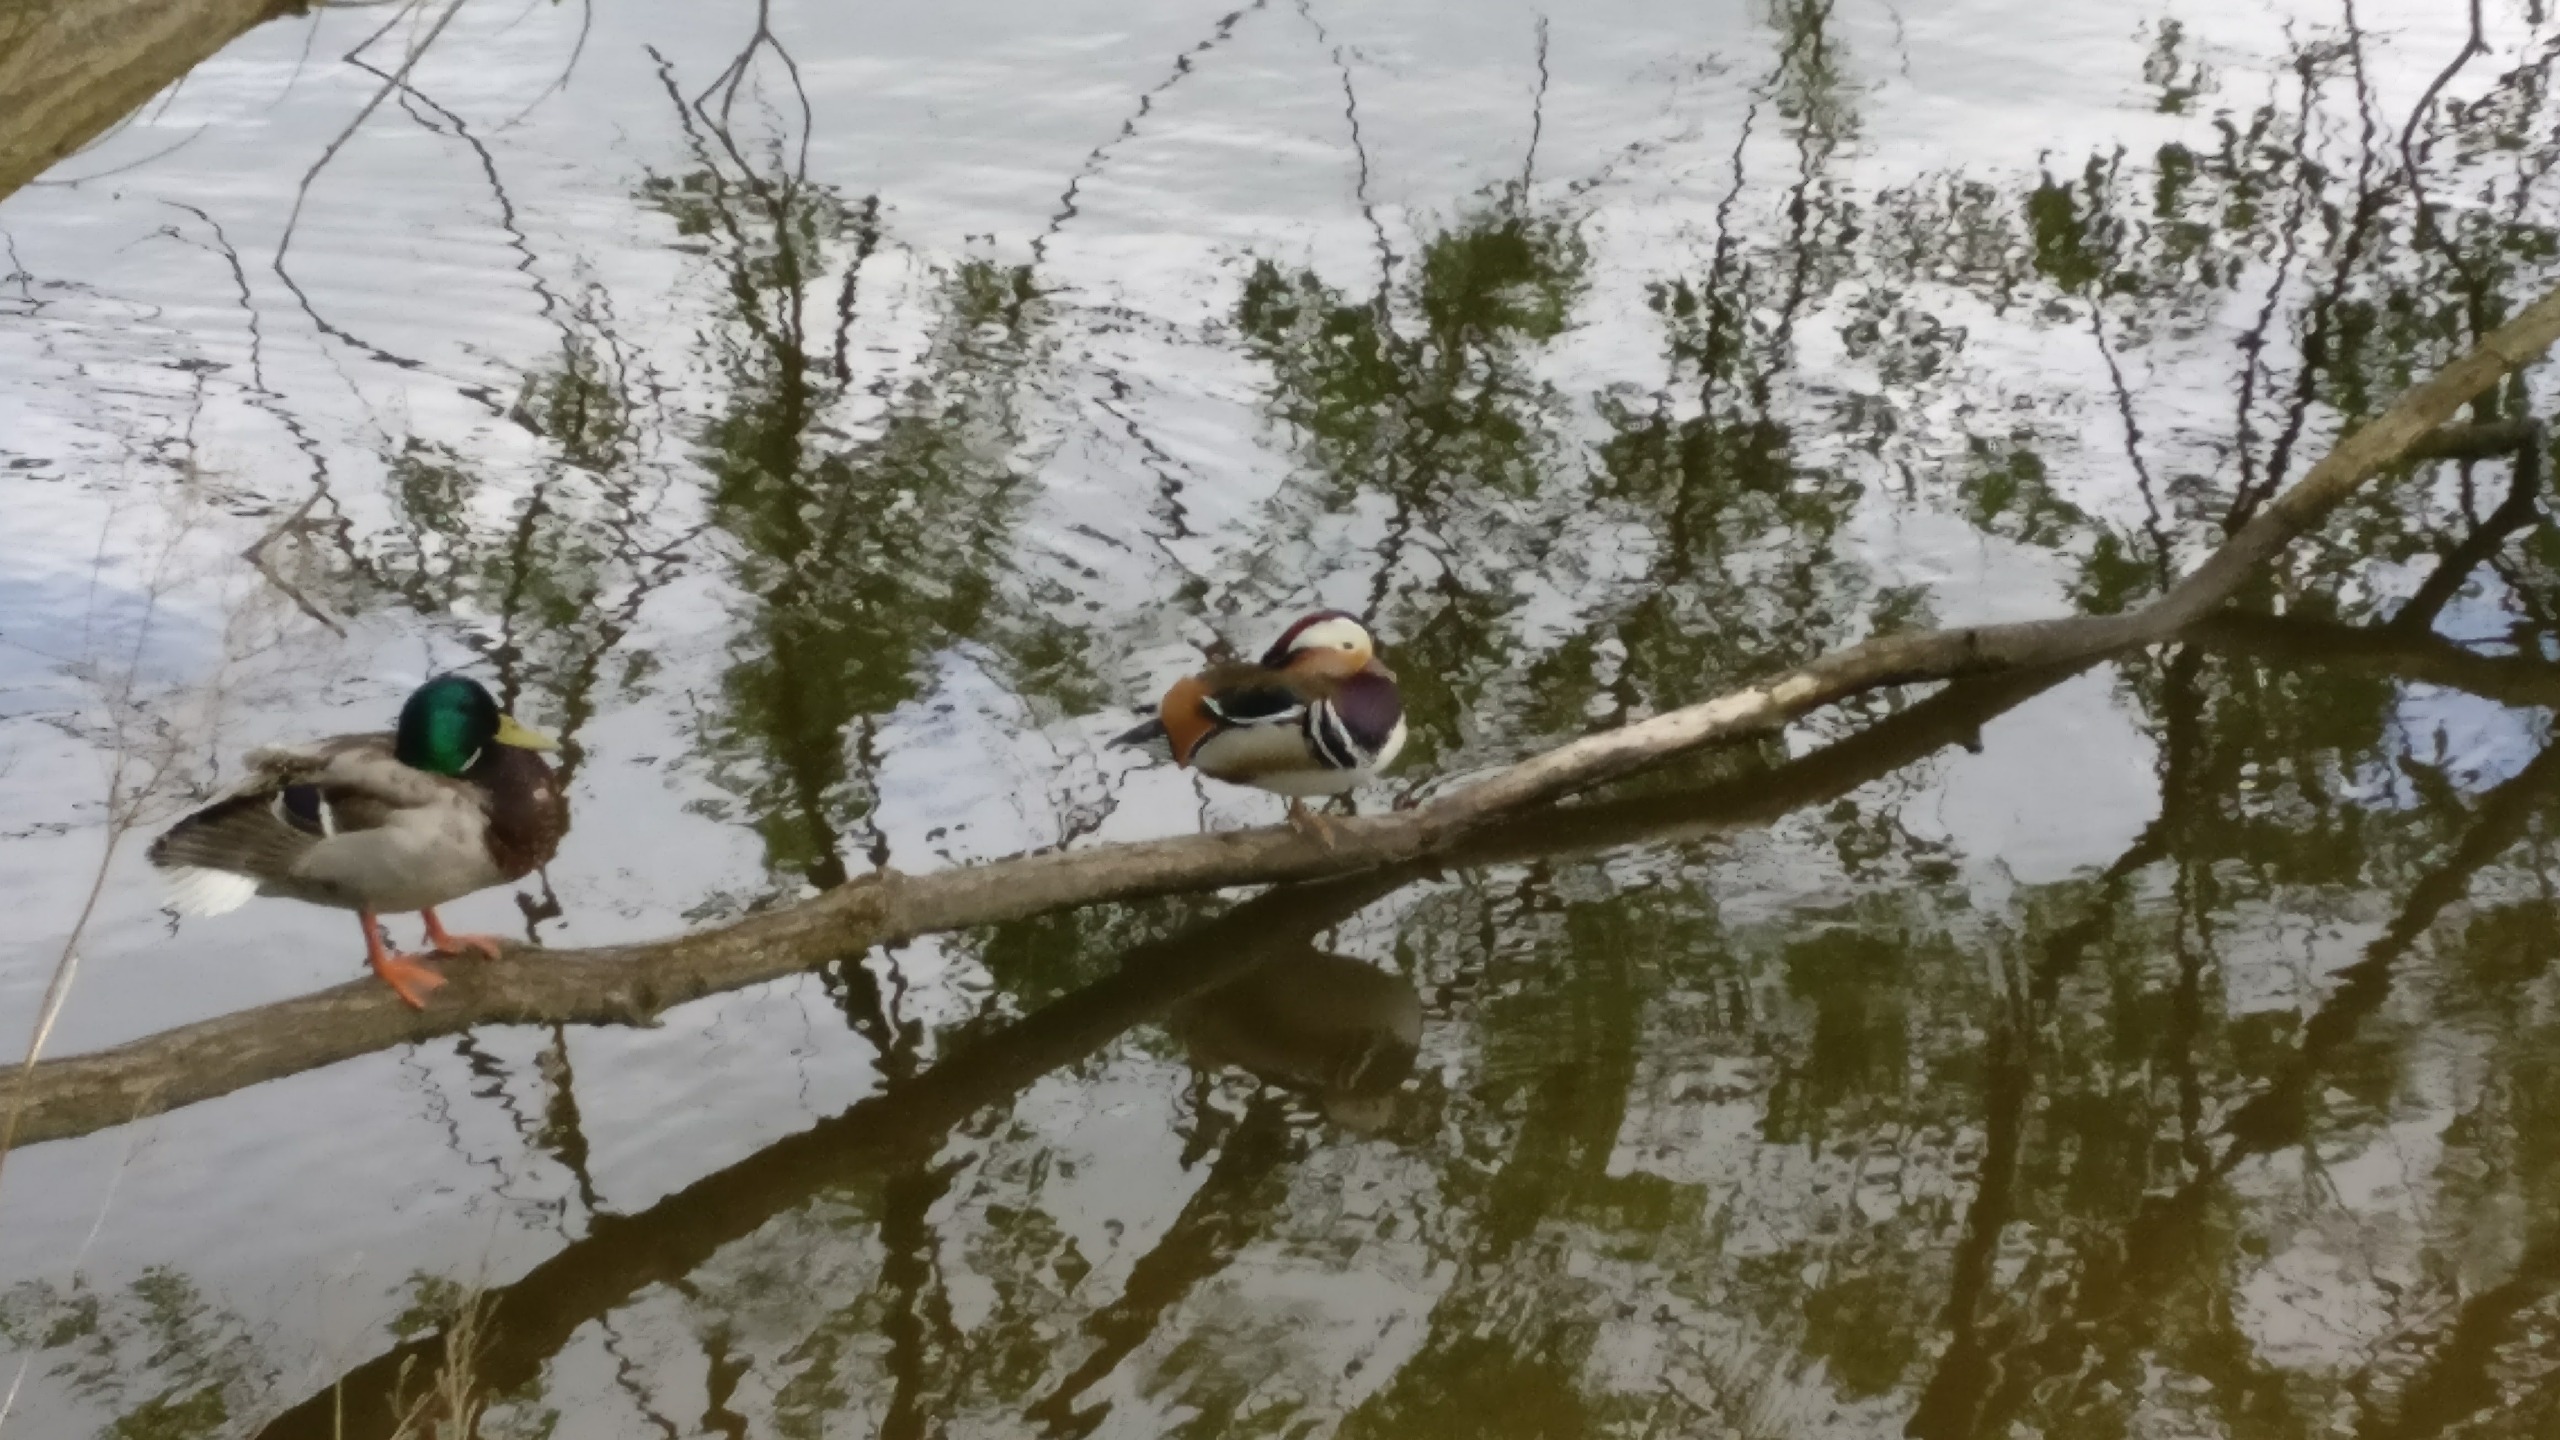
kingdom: Animalia
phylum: Chordata
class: Aves
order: Anseriformes
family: Anatidae
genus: Aix
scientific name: Aix galericulata
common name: Mandarinand
